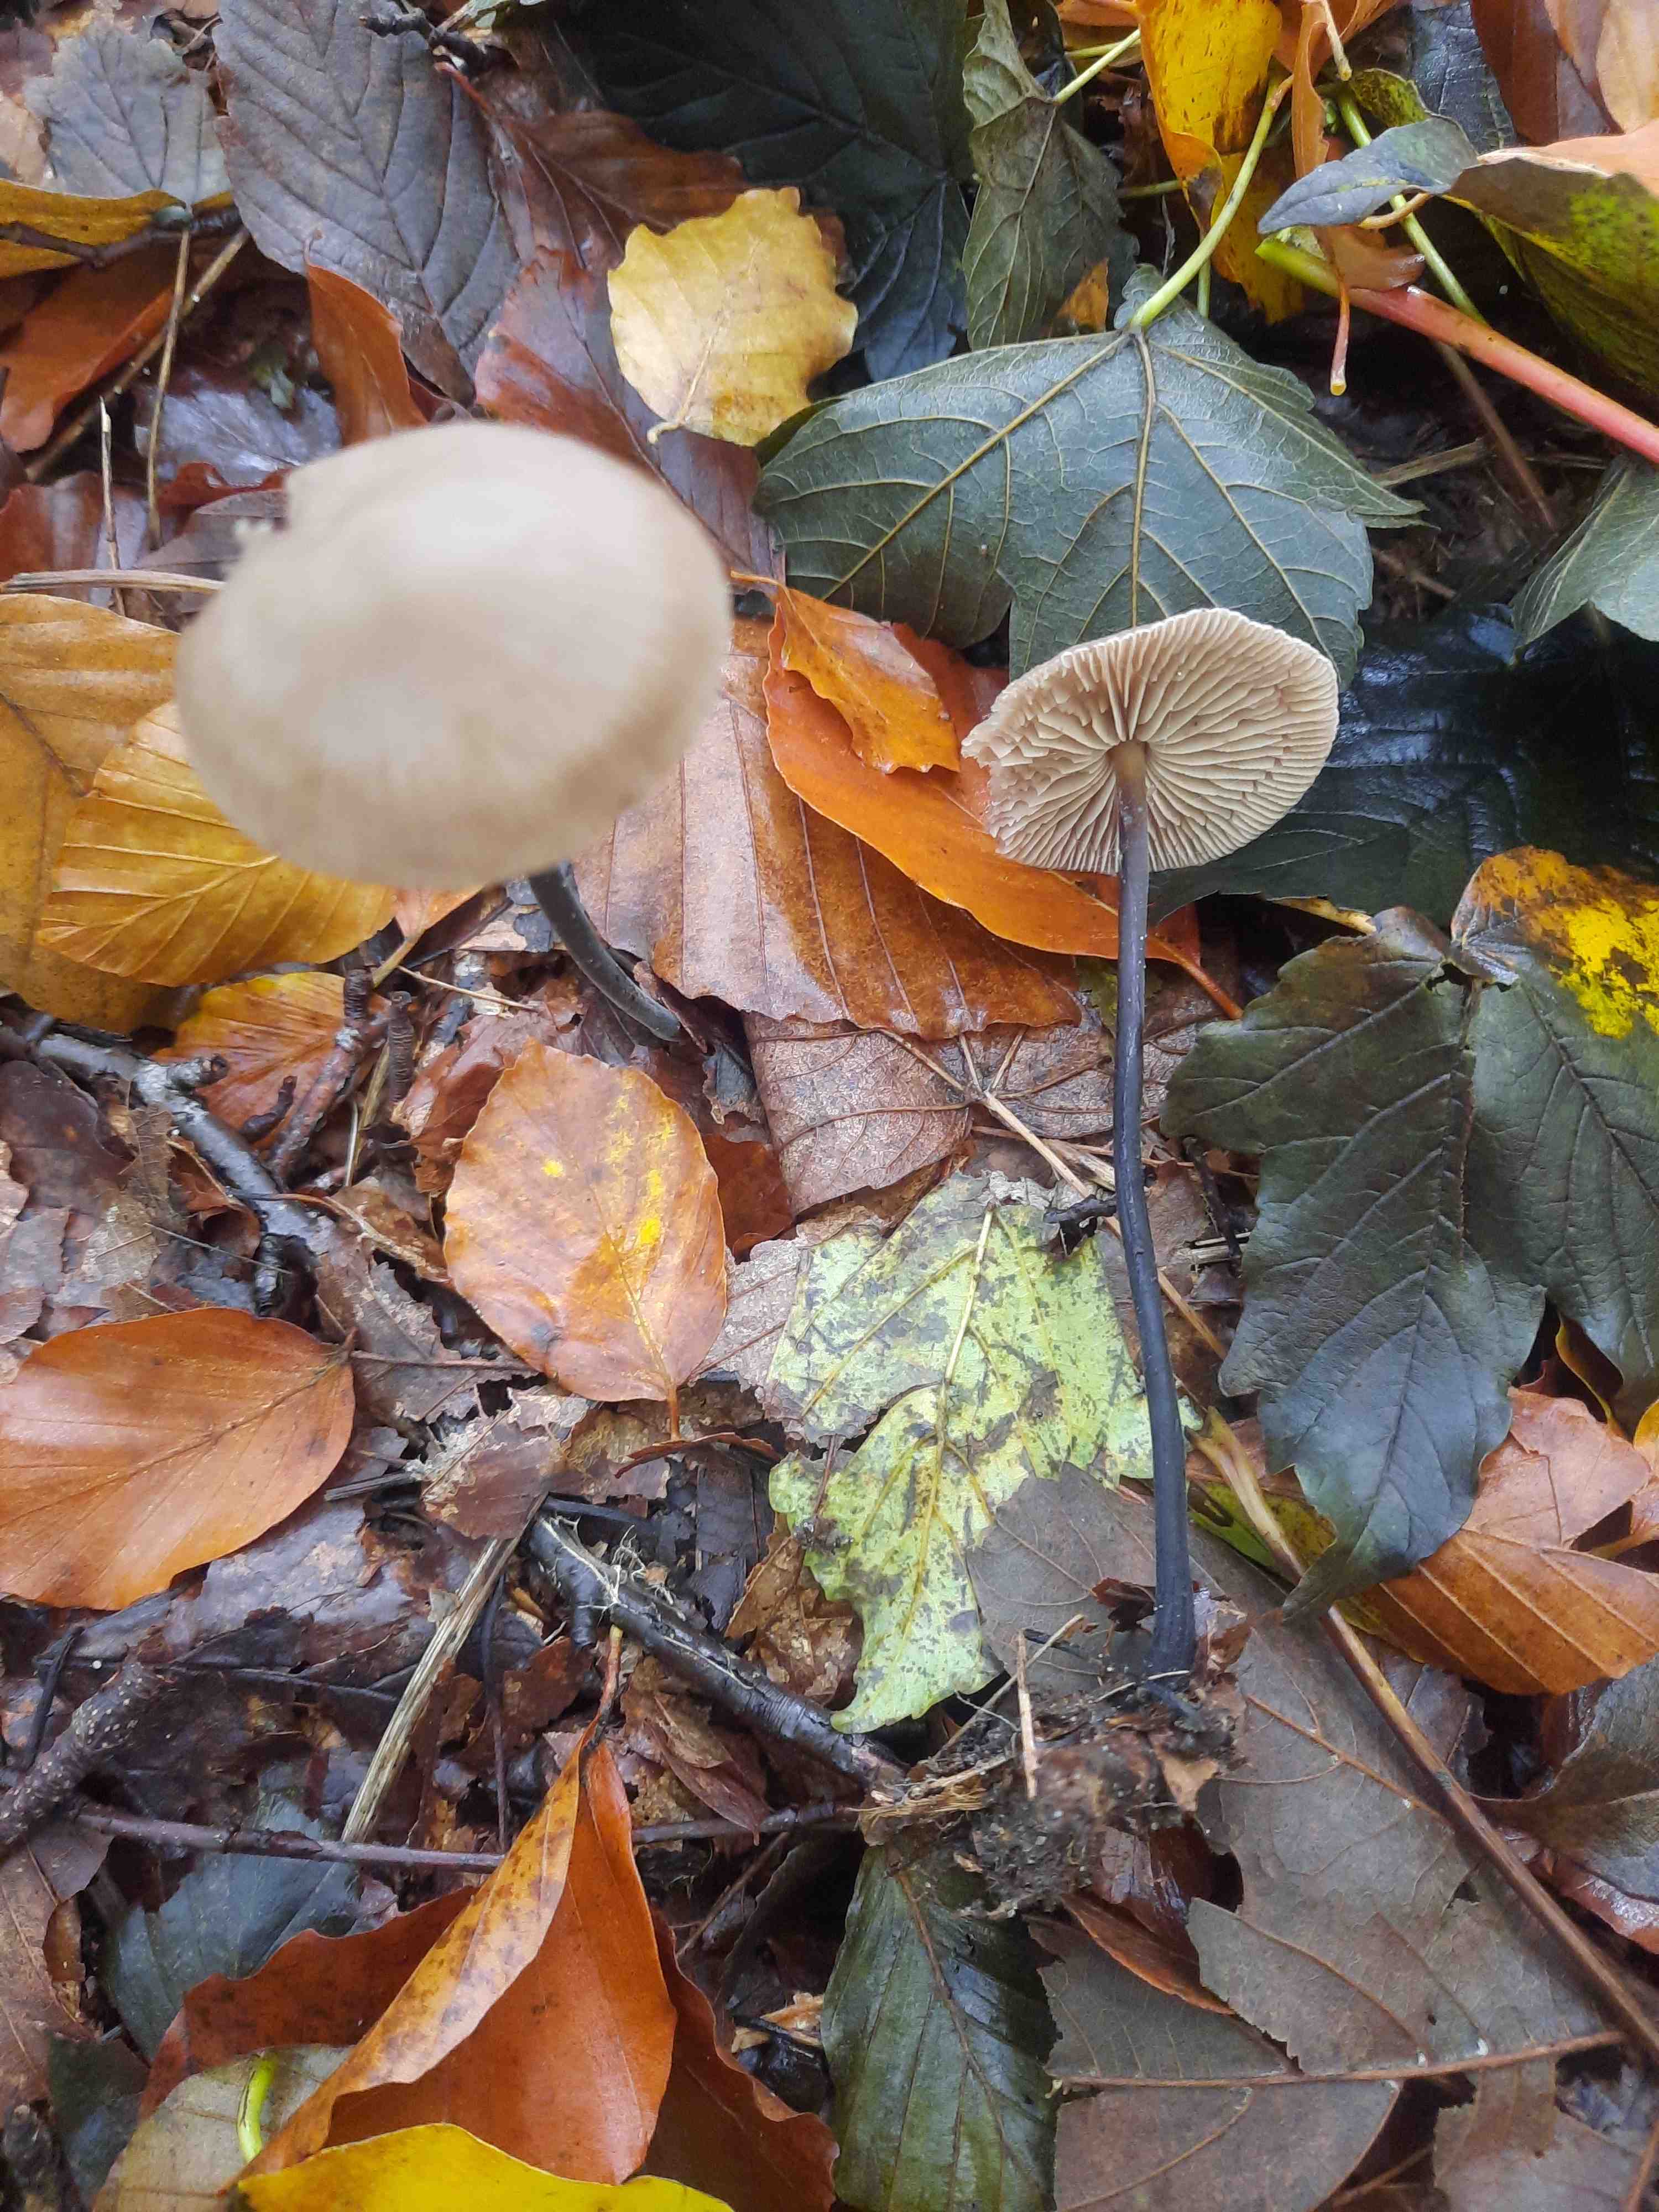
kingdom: Fungi
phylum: Basidiomycota
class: Agaricomycetes
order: Agaricales
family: Omphalotaceae
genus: Mycetinis
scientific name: Mycetinis alliaceus
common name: stor løghat
